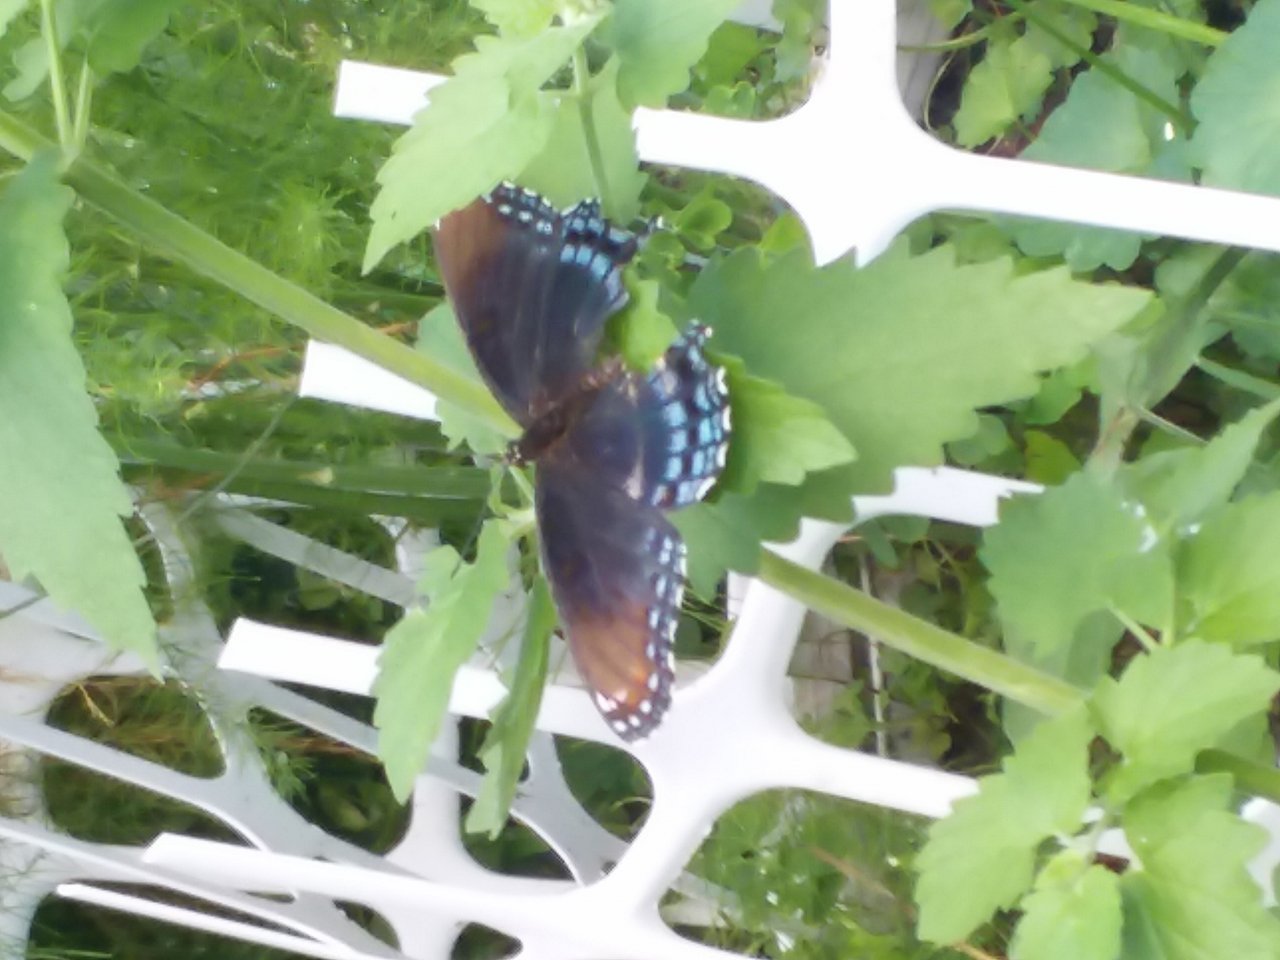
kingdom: Animalia
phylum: Arthropoda
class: Insecta
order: Lepidoptera
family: Nymphalidae
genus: Limenitis
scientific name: Limenitis astyanax
